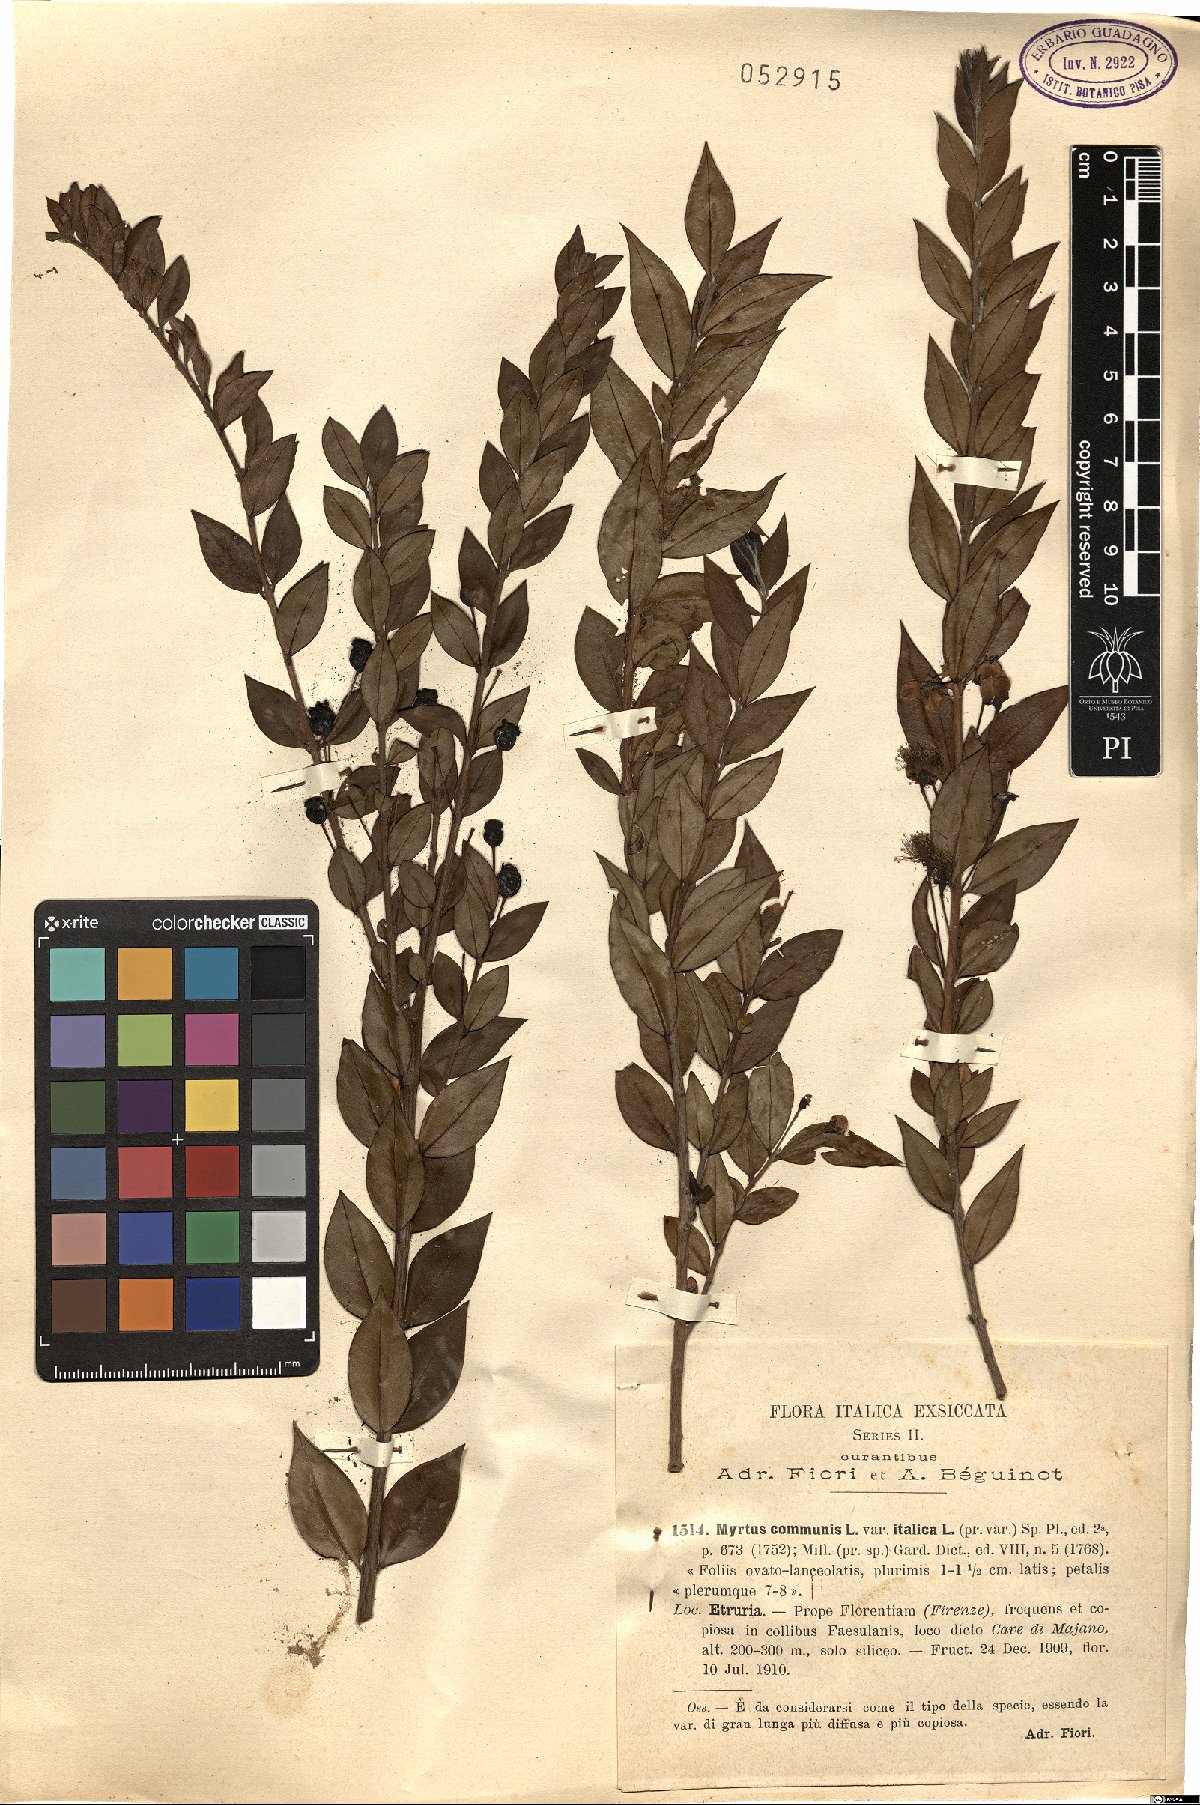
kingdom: Plantae
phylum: Tracheophyta
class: Magnoliopsida
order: Myrtales
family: Myrtaceae
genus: Myrtus
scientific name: Myrtus communis
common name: Myrtle
